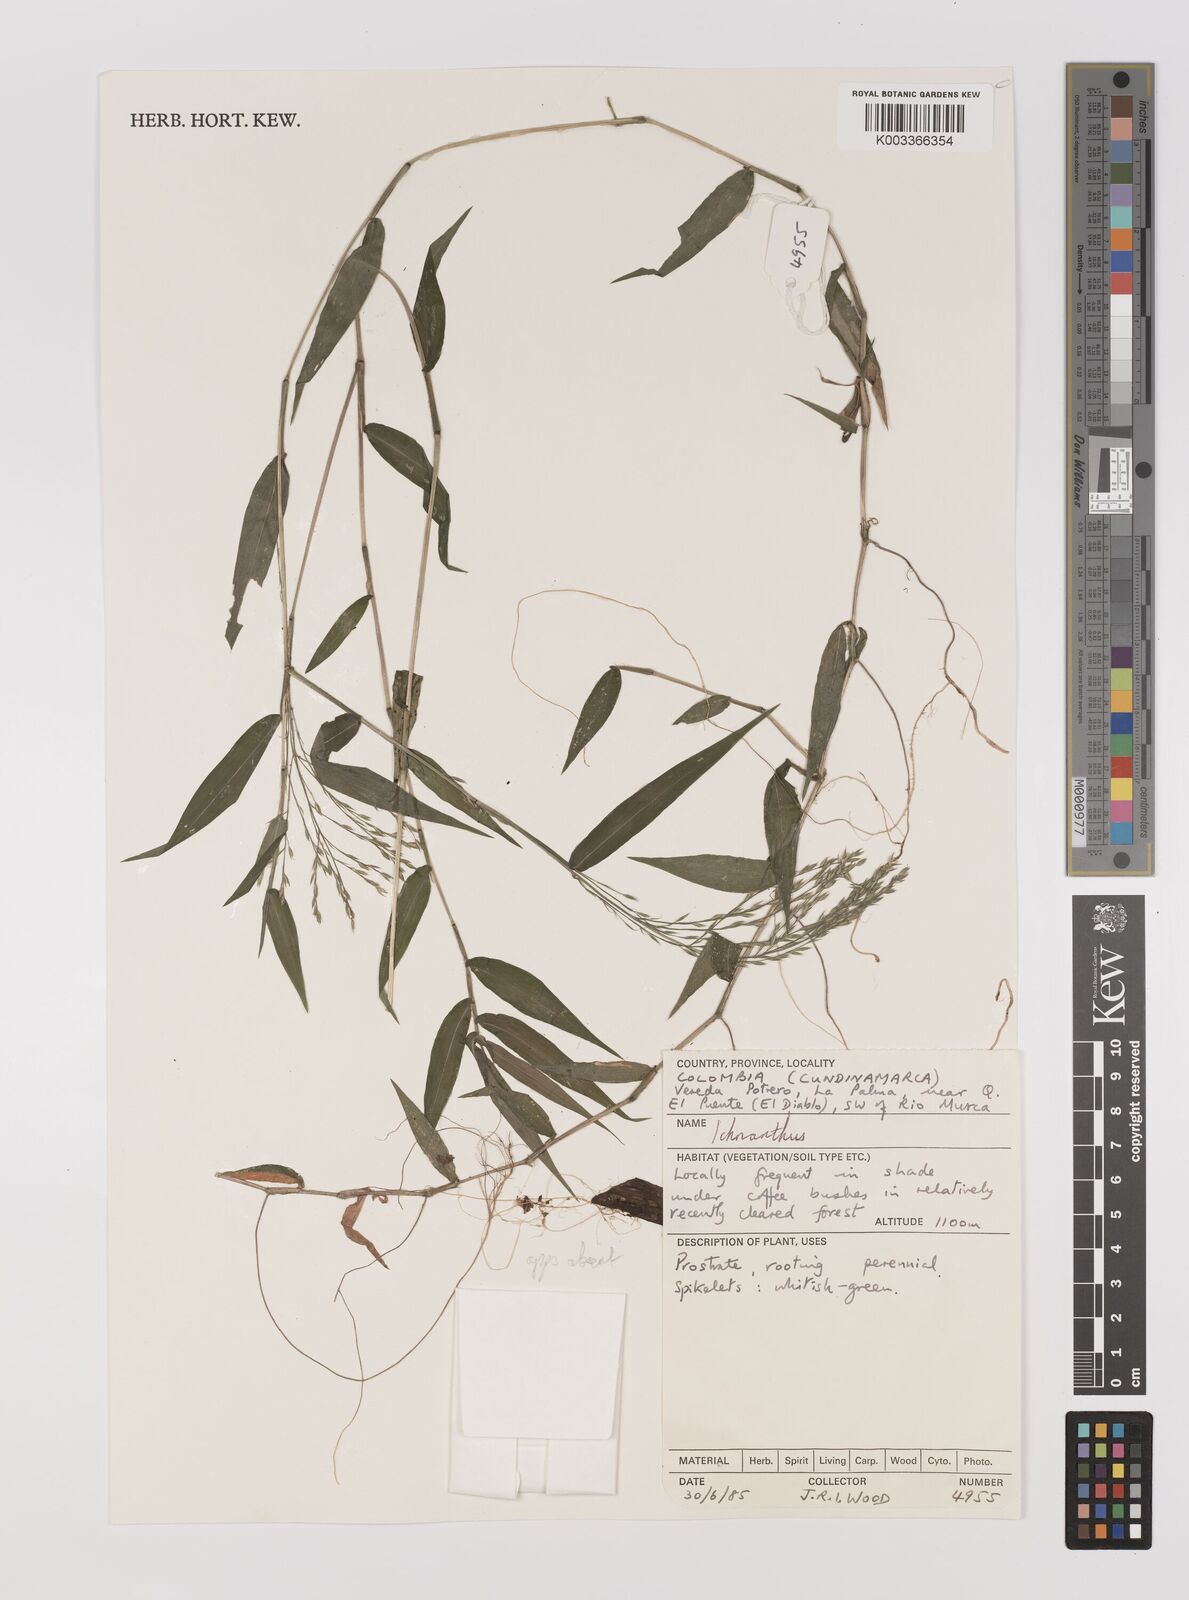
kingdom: Plantae
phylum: Tracheophyta
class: Liliopsida
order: Poales
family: Poaceae
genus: Ichnanthus
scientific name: Ichnanthus tenuis
